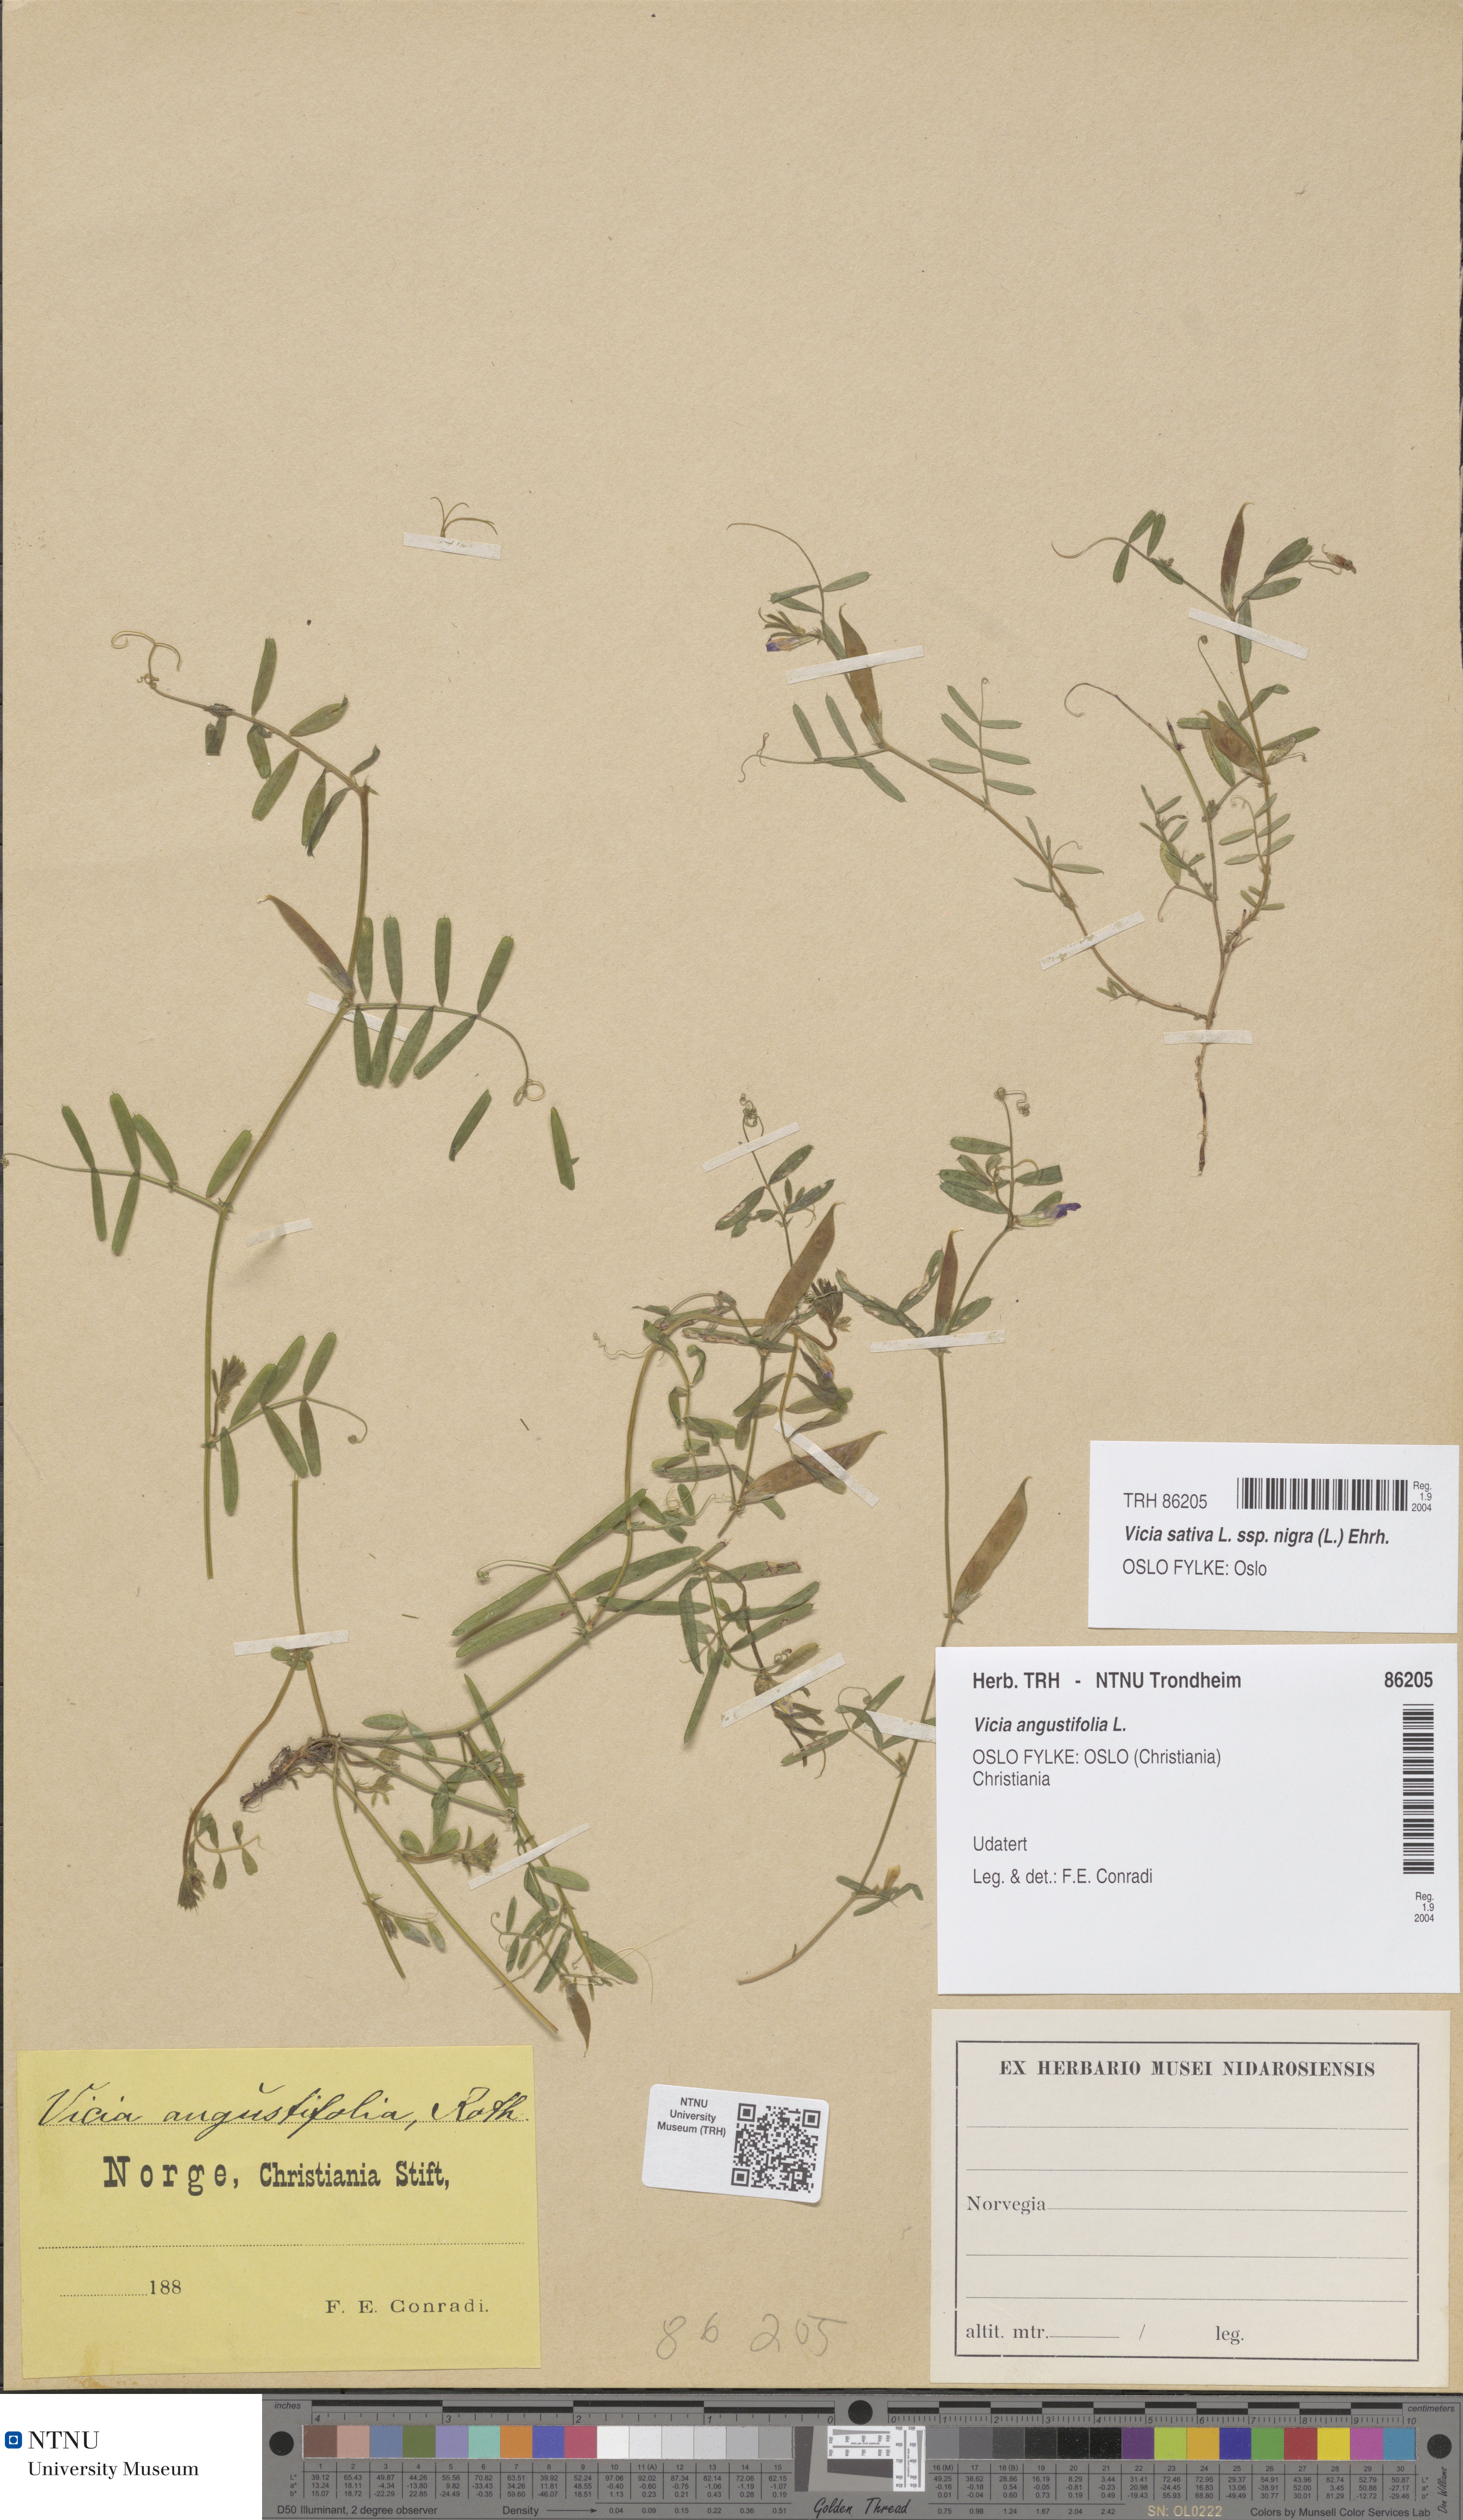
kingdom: Plantae
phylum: Tracheophyta
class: Magnoliopsida
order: Fabales
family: Fabaceae
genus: Vicia
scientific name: Vicia sativa
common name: Garden vetch
